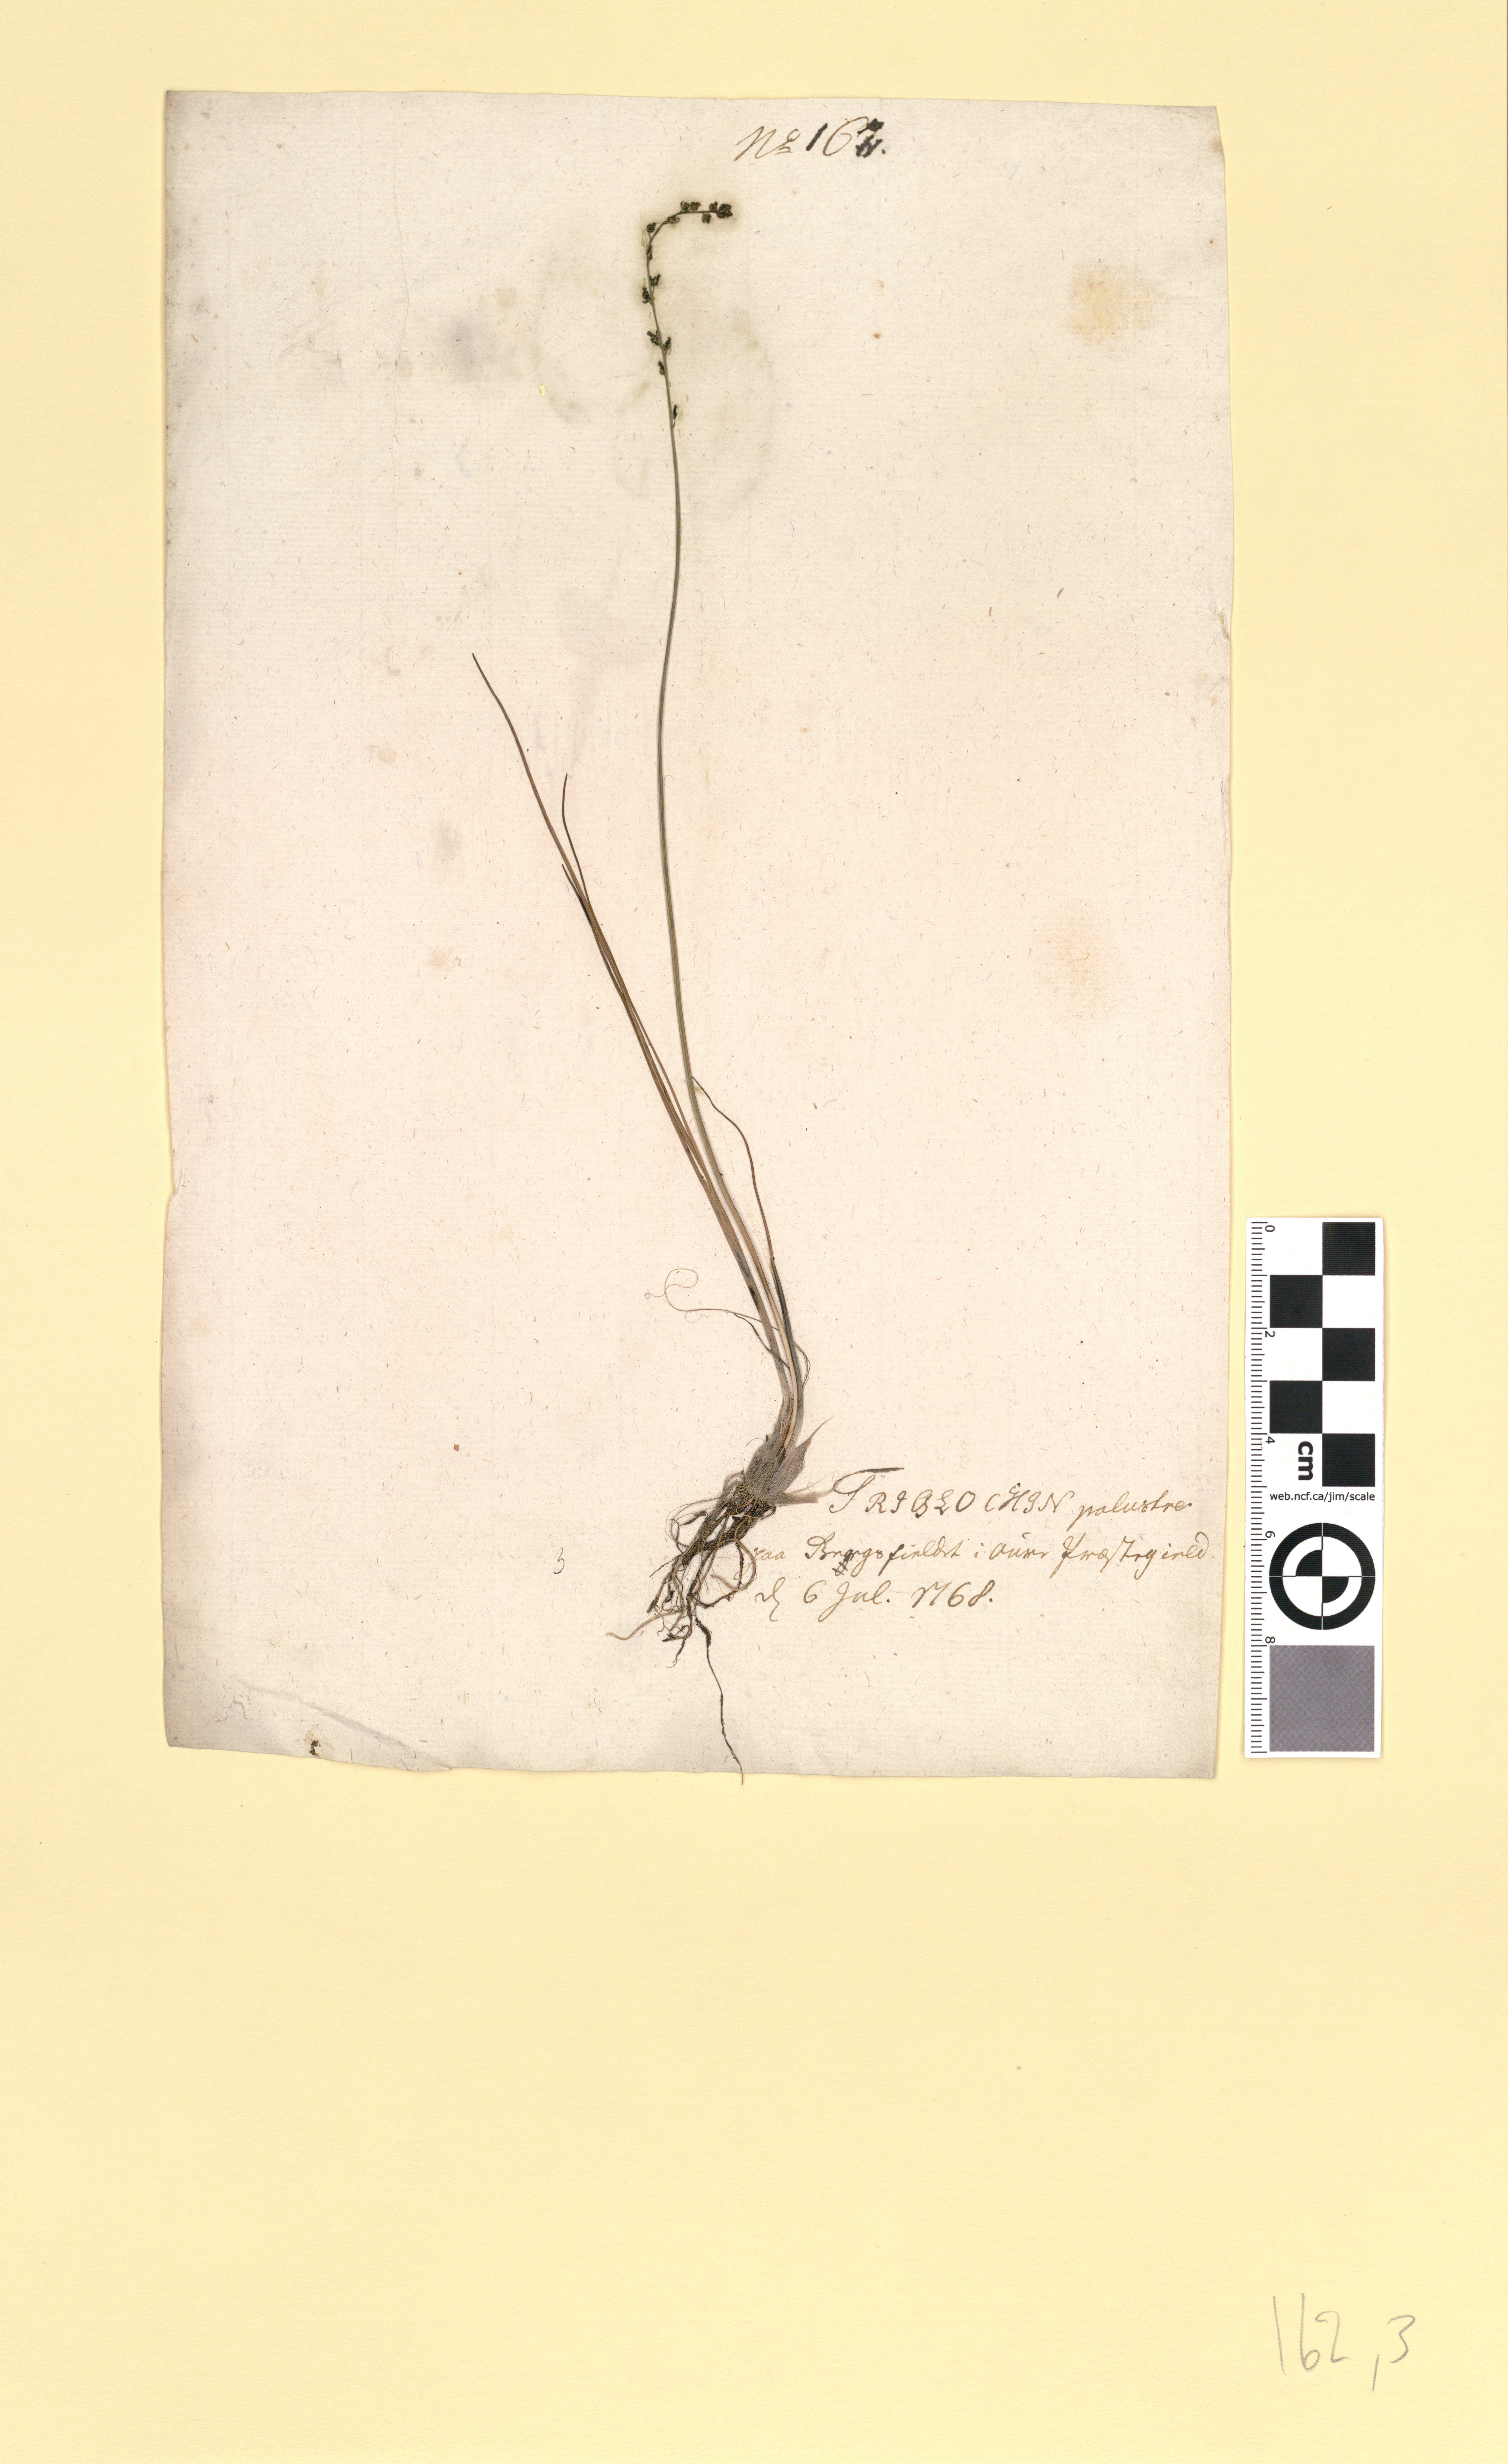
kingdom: Plantae
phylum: Tracheophyta
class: Liliopsida
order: Alismatales
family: Juncaginaceae
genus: Triglochin
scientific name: Triglochin palustris
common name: Marsh arrowgrass
